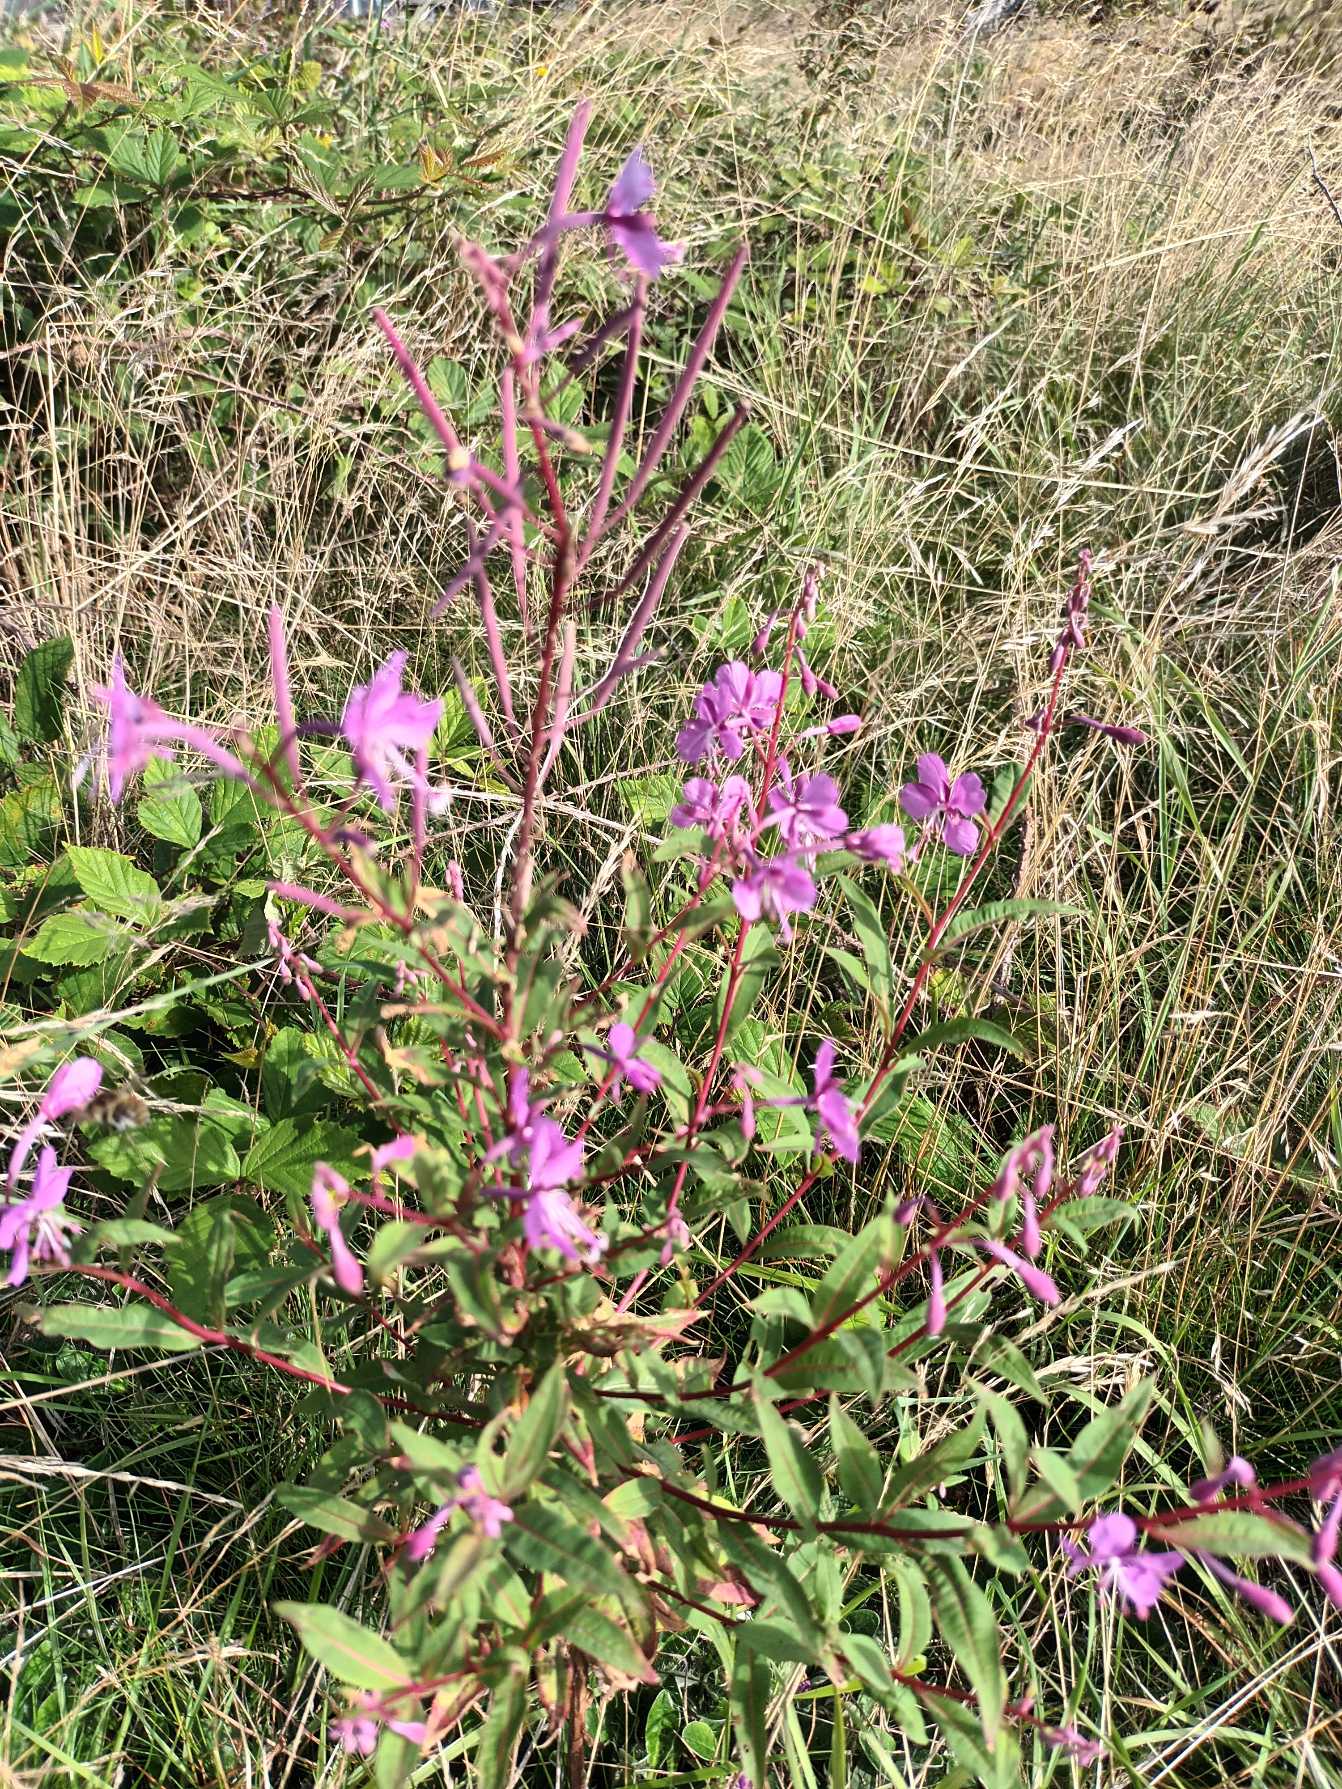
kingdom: Plantae
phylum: Tracheophyta
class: Magnoliopsida
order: Myrtales
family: Onagraceae
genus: Chamaenerion
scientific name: Chamaenerion angustifolium
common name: Gederams
